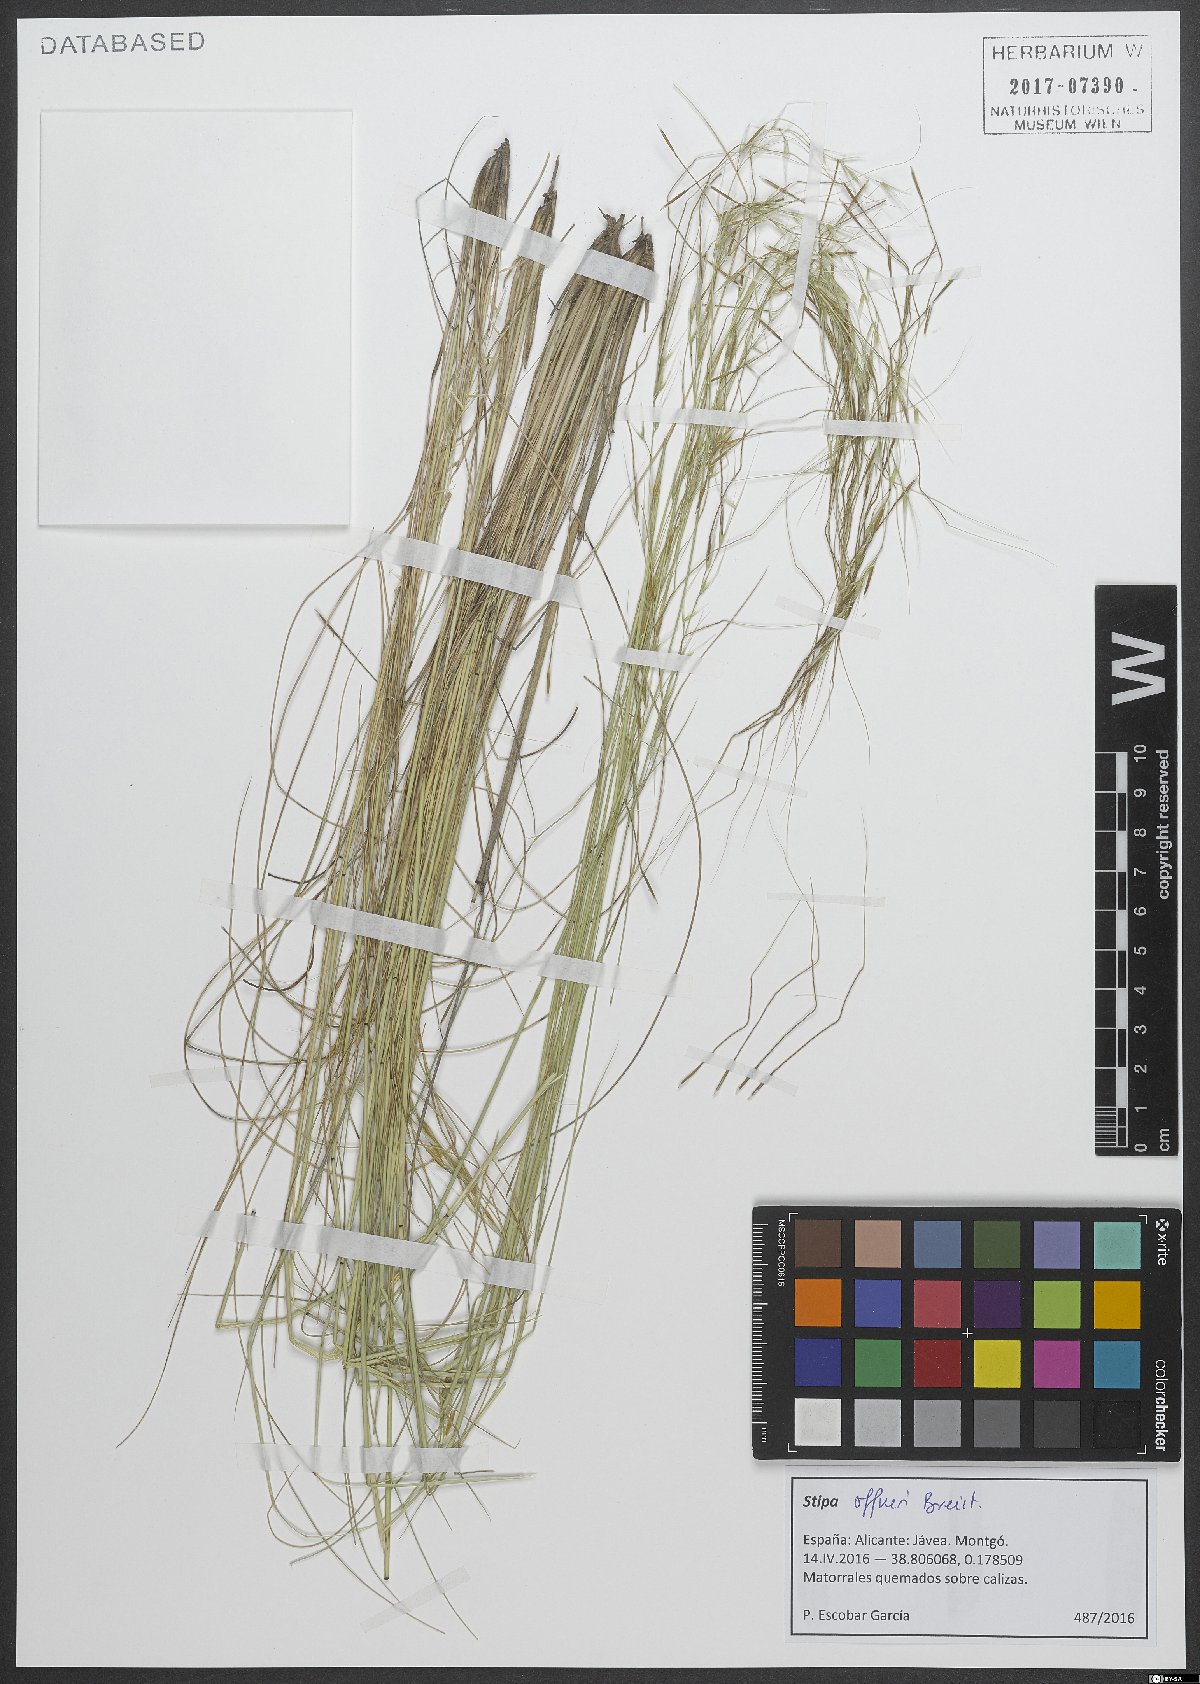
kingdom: Plantae
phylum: Tracheophyta
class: Liliopsida
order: Poales
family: Poaceae
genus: Stipa
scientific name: Stipa offneri
